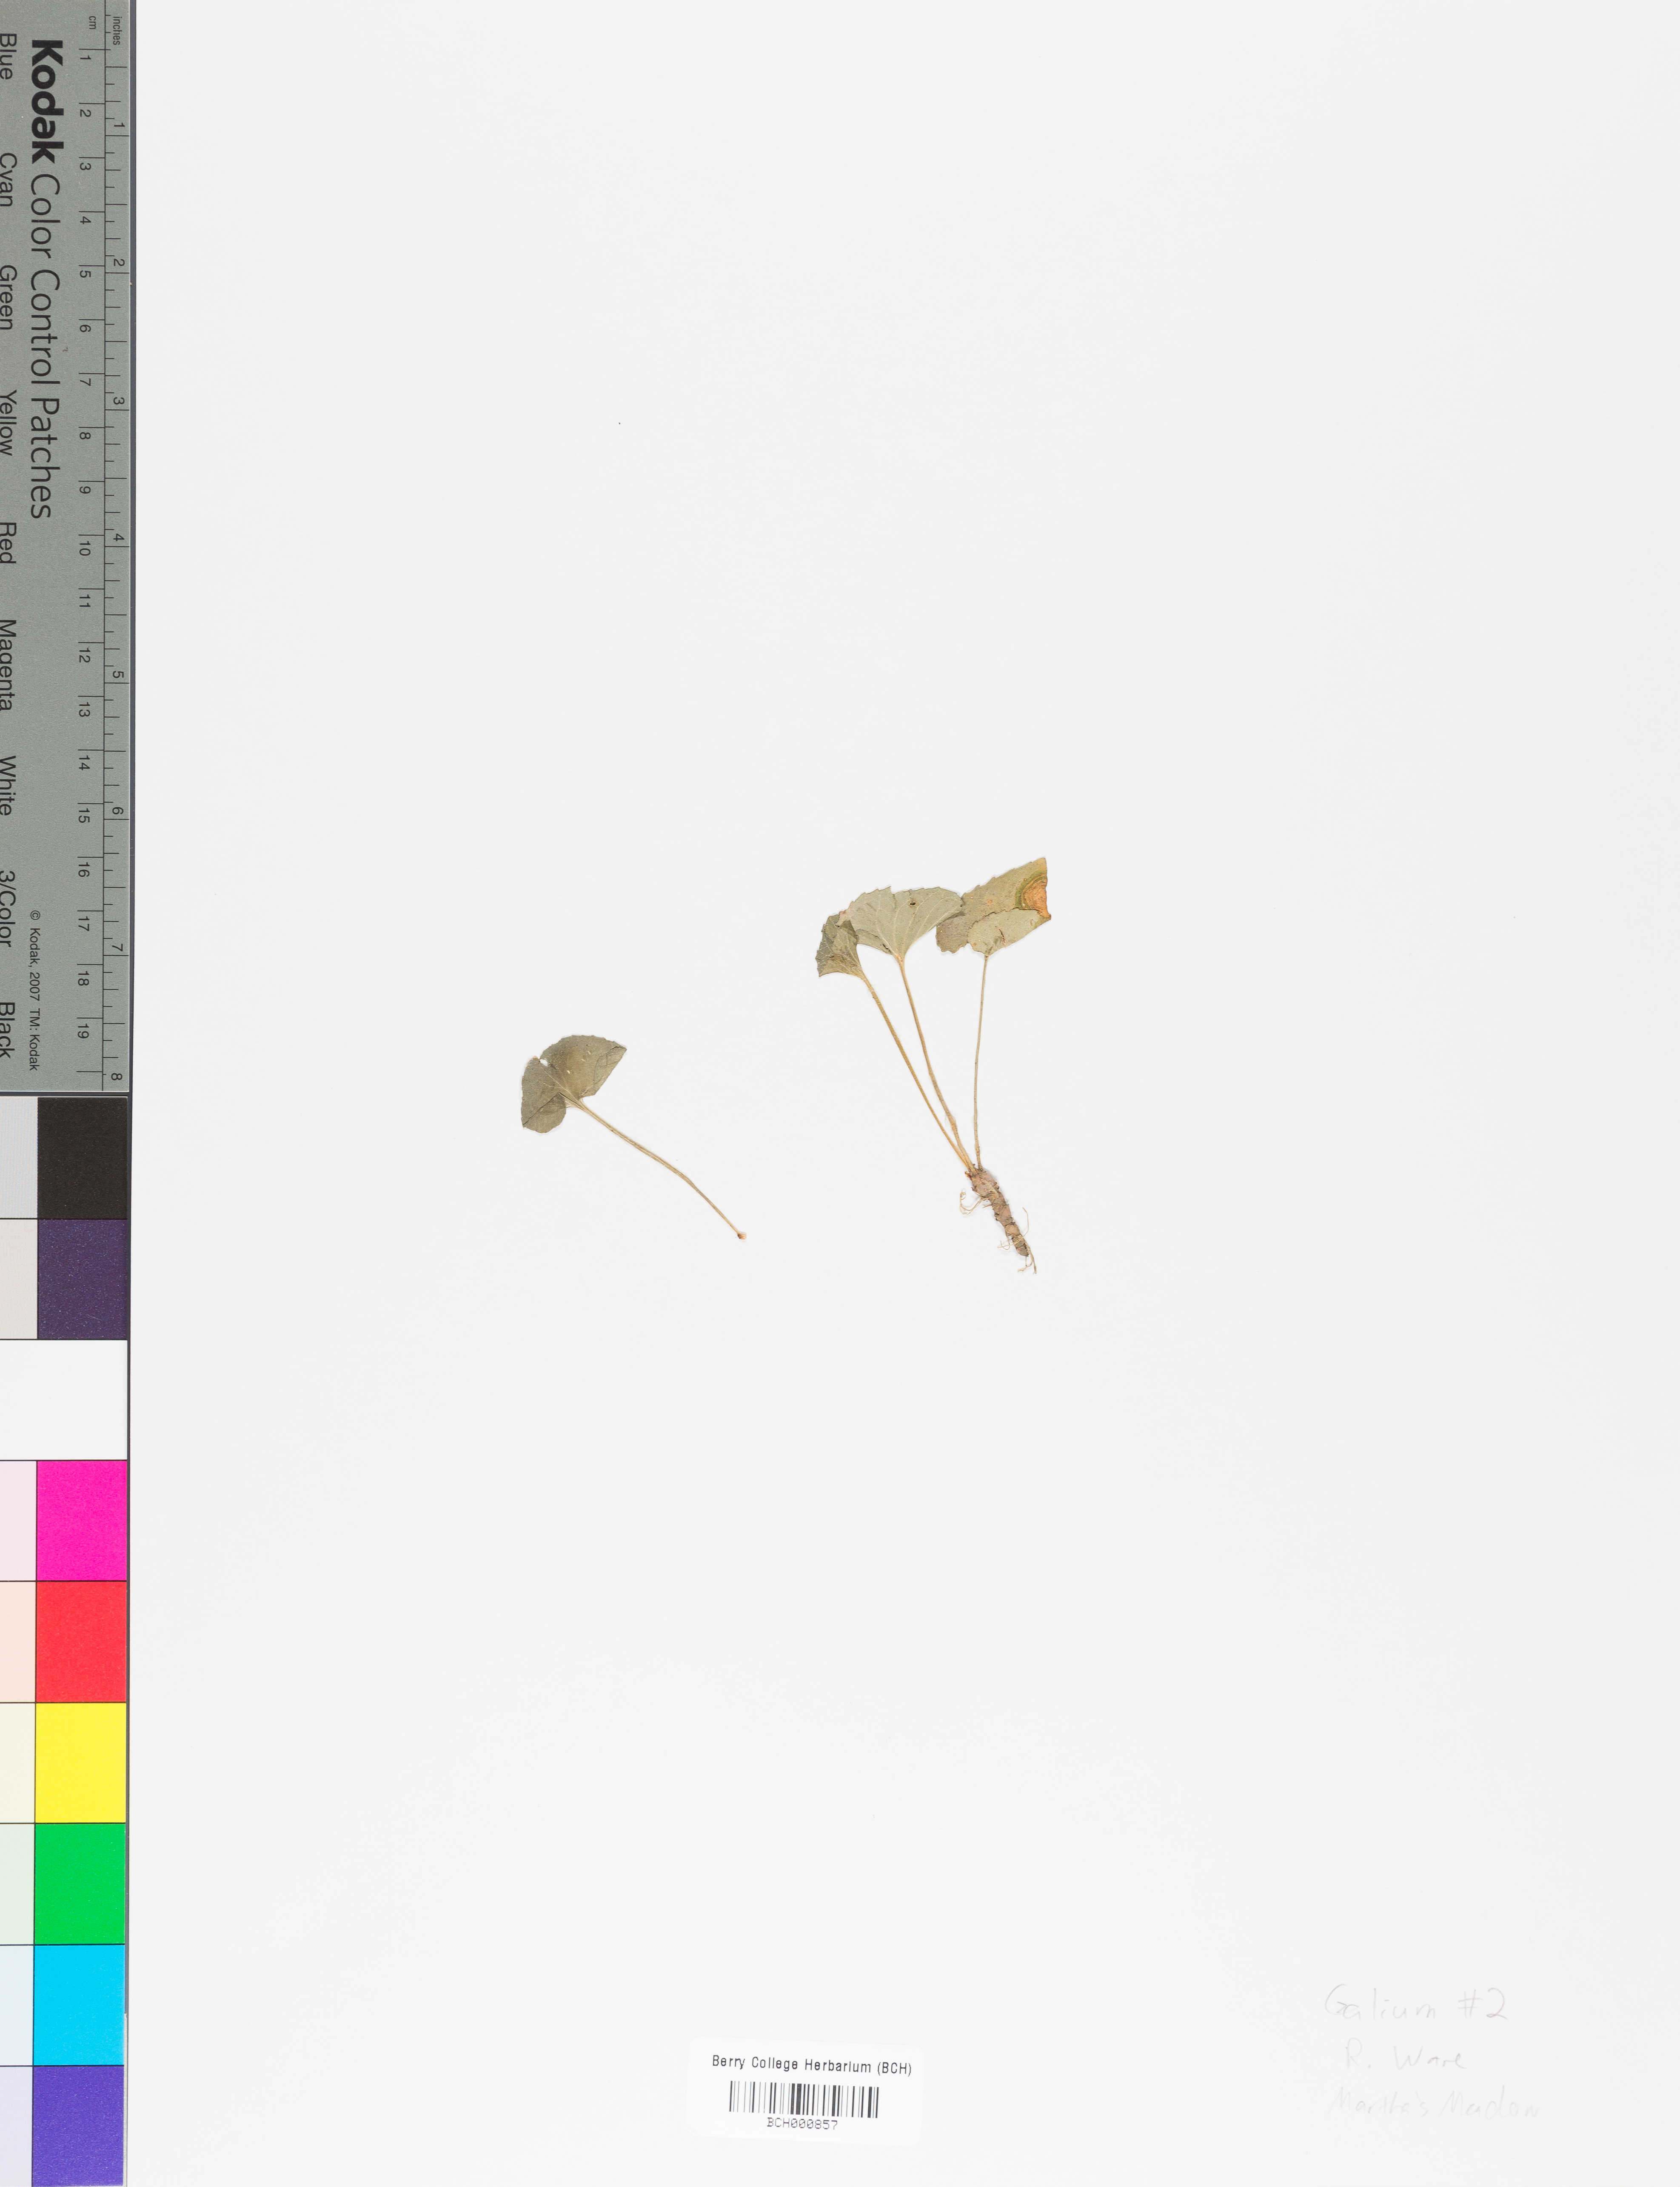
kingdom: Plantae
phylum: Tracheophyta
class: Magnoliopsida
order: Lamiales
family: Acanthaceae
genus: Adhatoda
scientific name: Adhatoda
